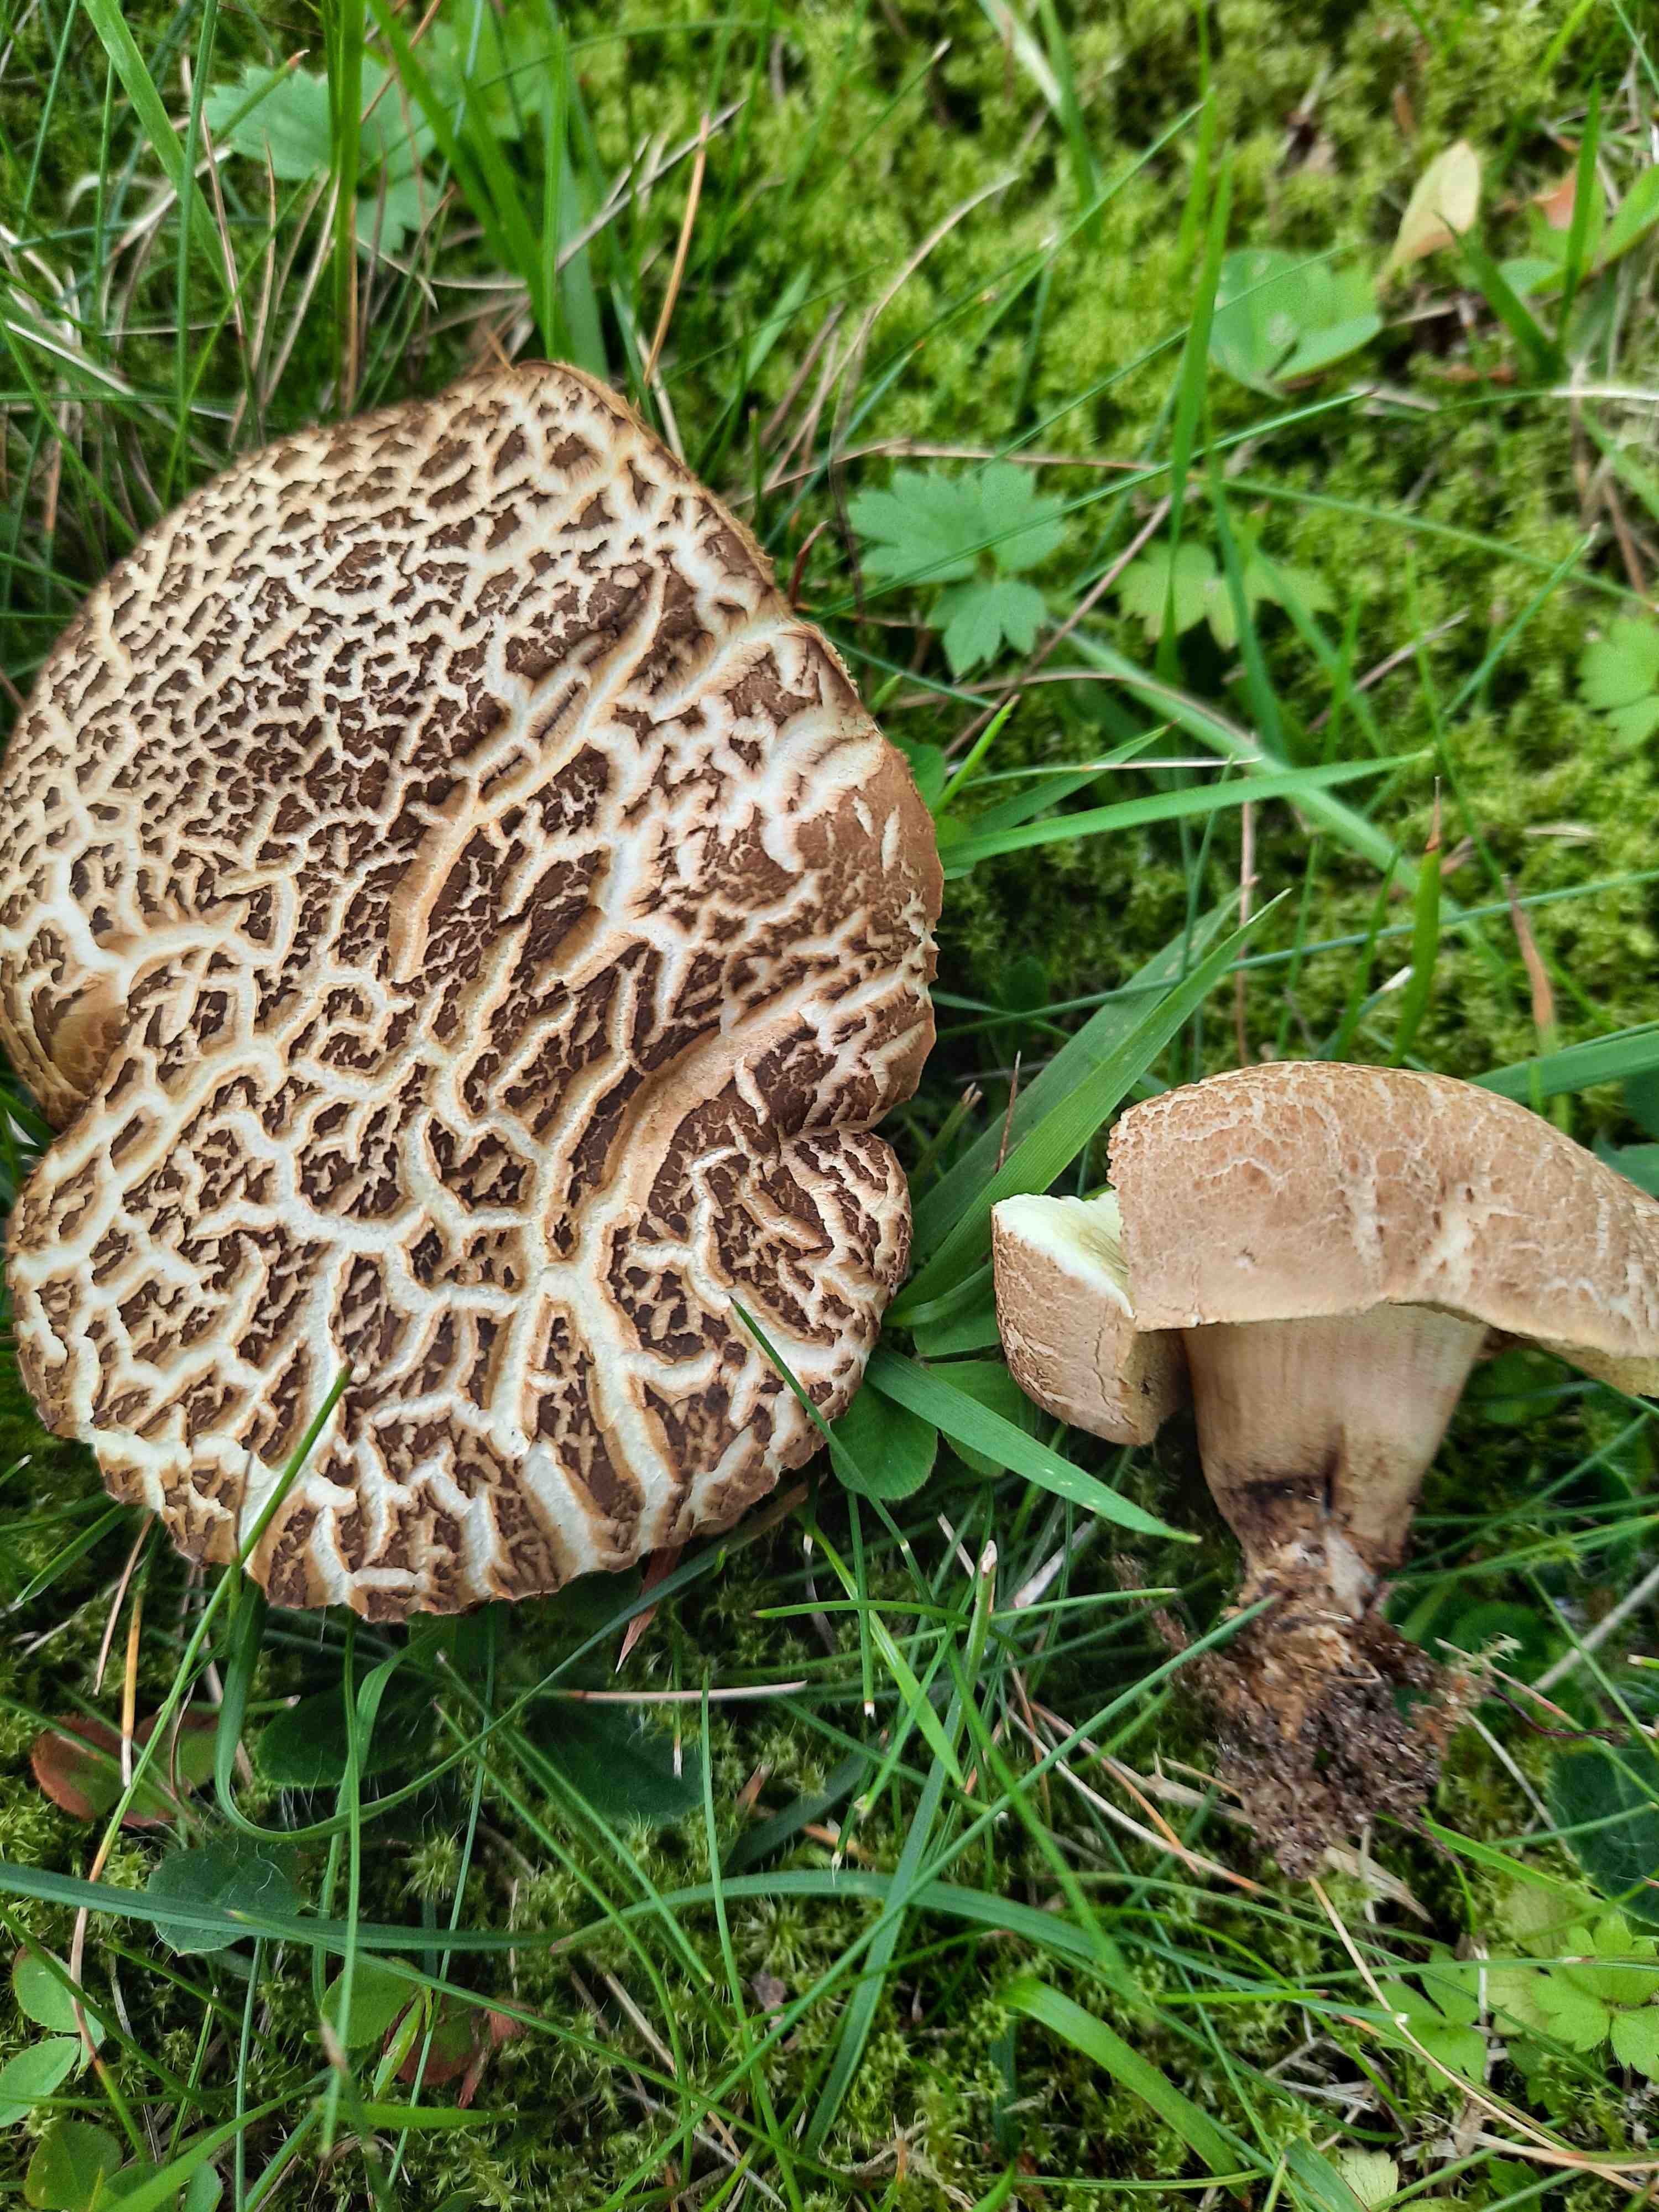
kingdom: Fungi
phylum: Basidiomycota
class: Agaricomycetes
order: Boletales
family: Boletaceae
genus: Xerocomellus
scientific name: Xerocomellus porosporus
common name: hvidsprukken rørhat
